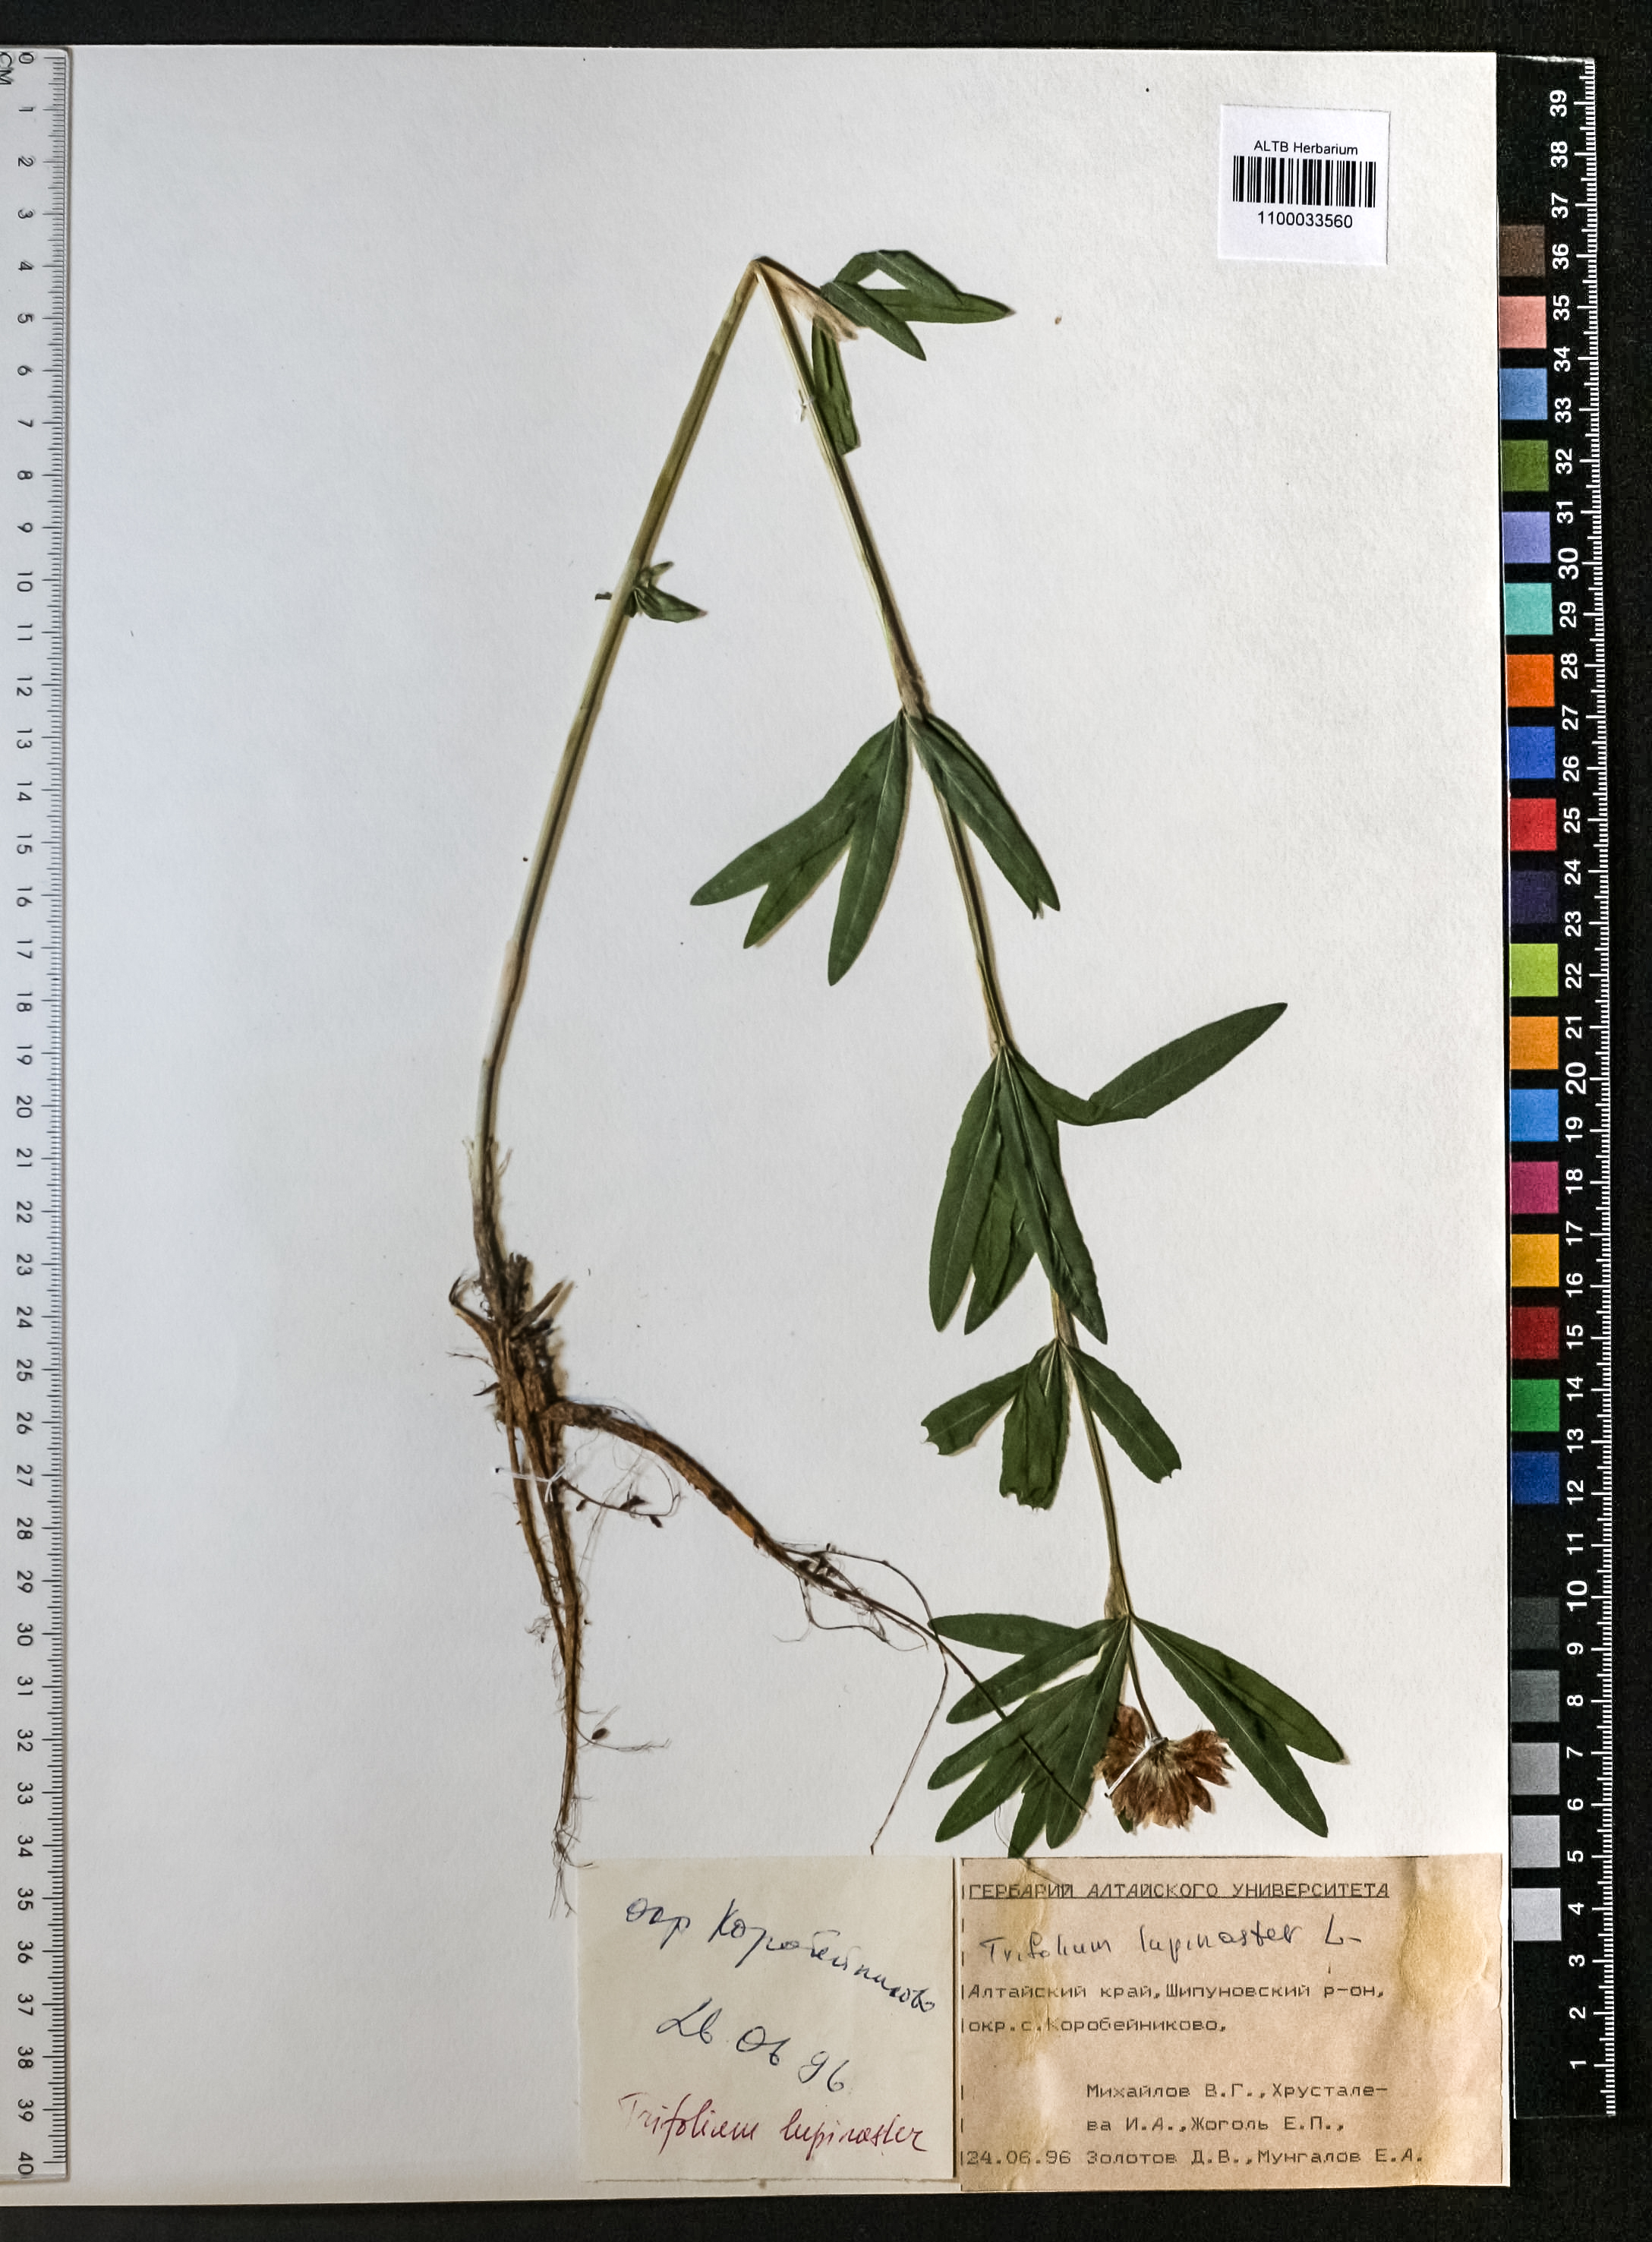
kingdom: Plantae
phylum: Tracheophyta
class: Magnoliopsida
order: Fabales
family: Fabaceae
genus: Trifolium
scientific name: Trifolium lupinaster
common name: Lupine clover
